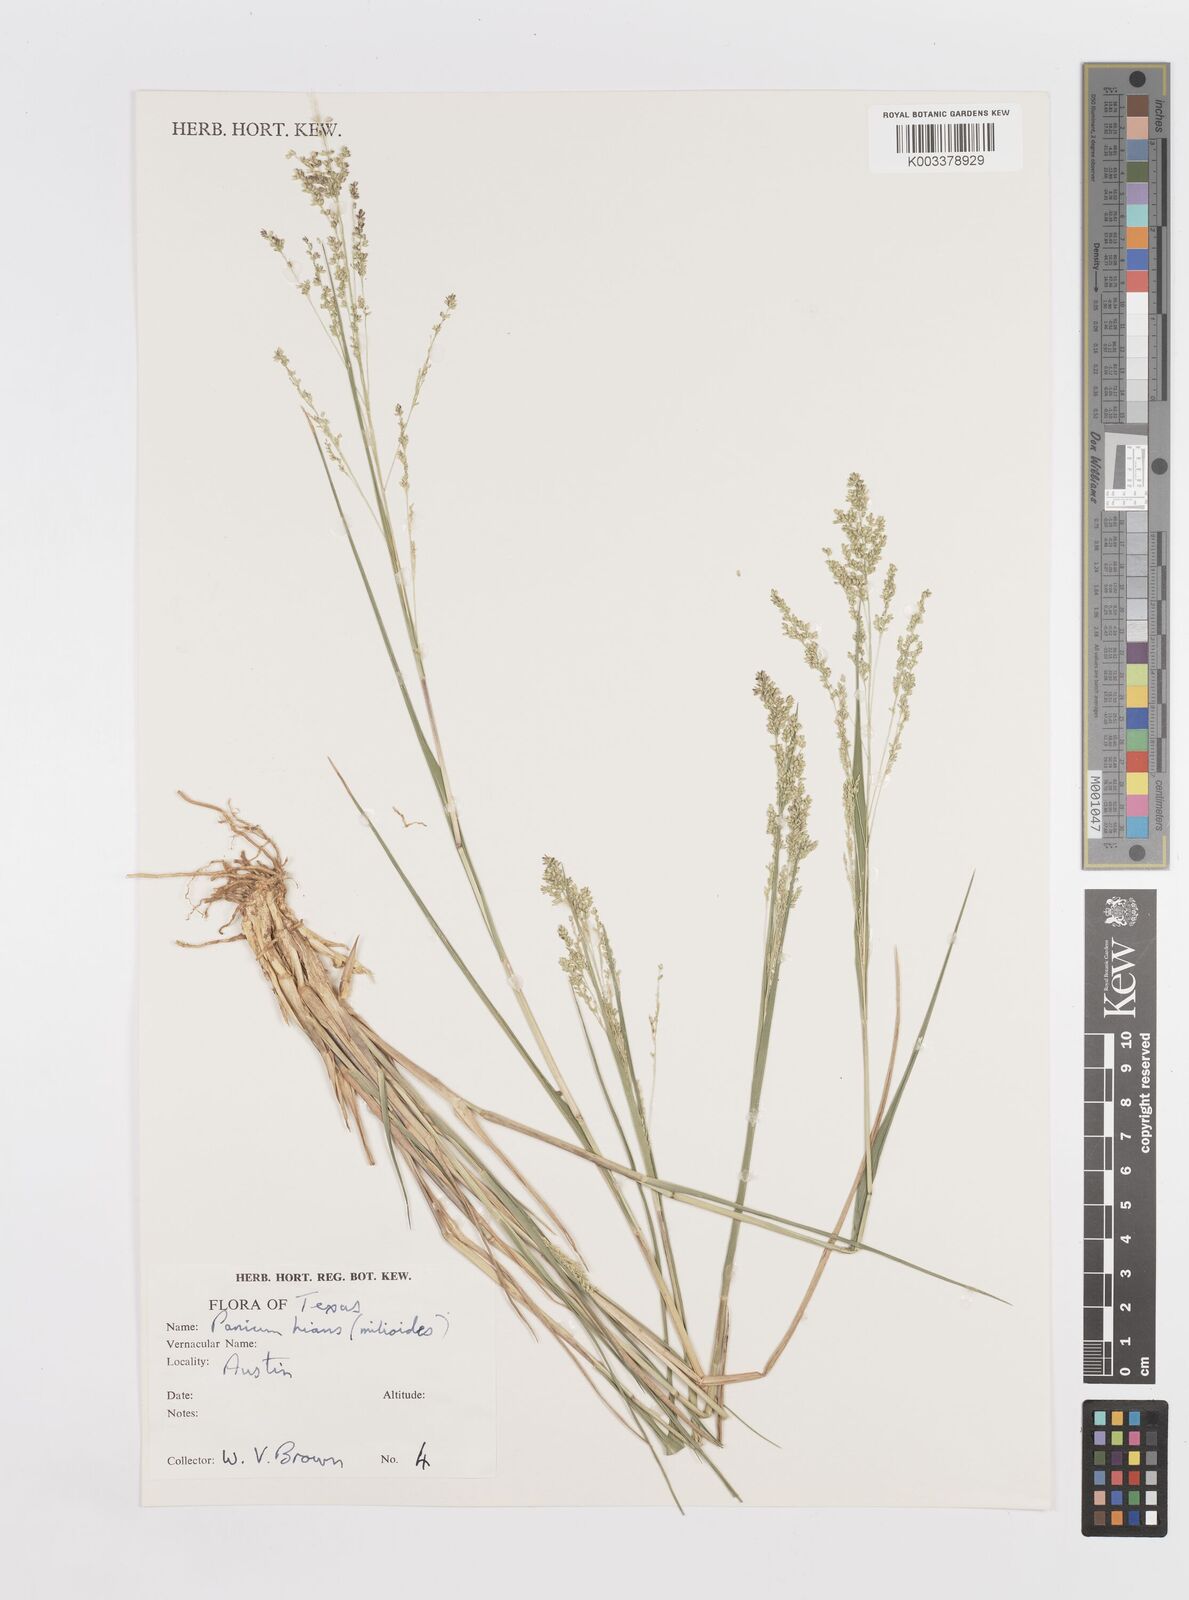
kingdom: Plantae
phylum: Tracheophyta
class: Liliopsida
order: Poales
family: Poaceae
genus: Steinchisma
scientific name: Steinchisma hians
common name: Gaping panic grass
